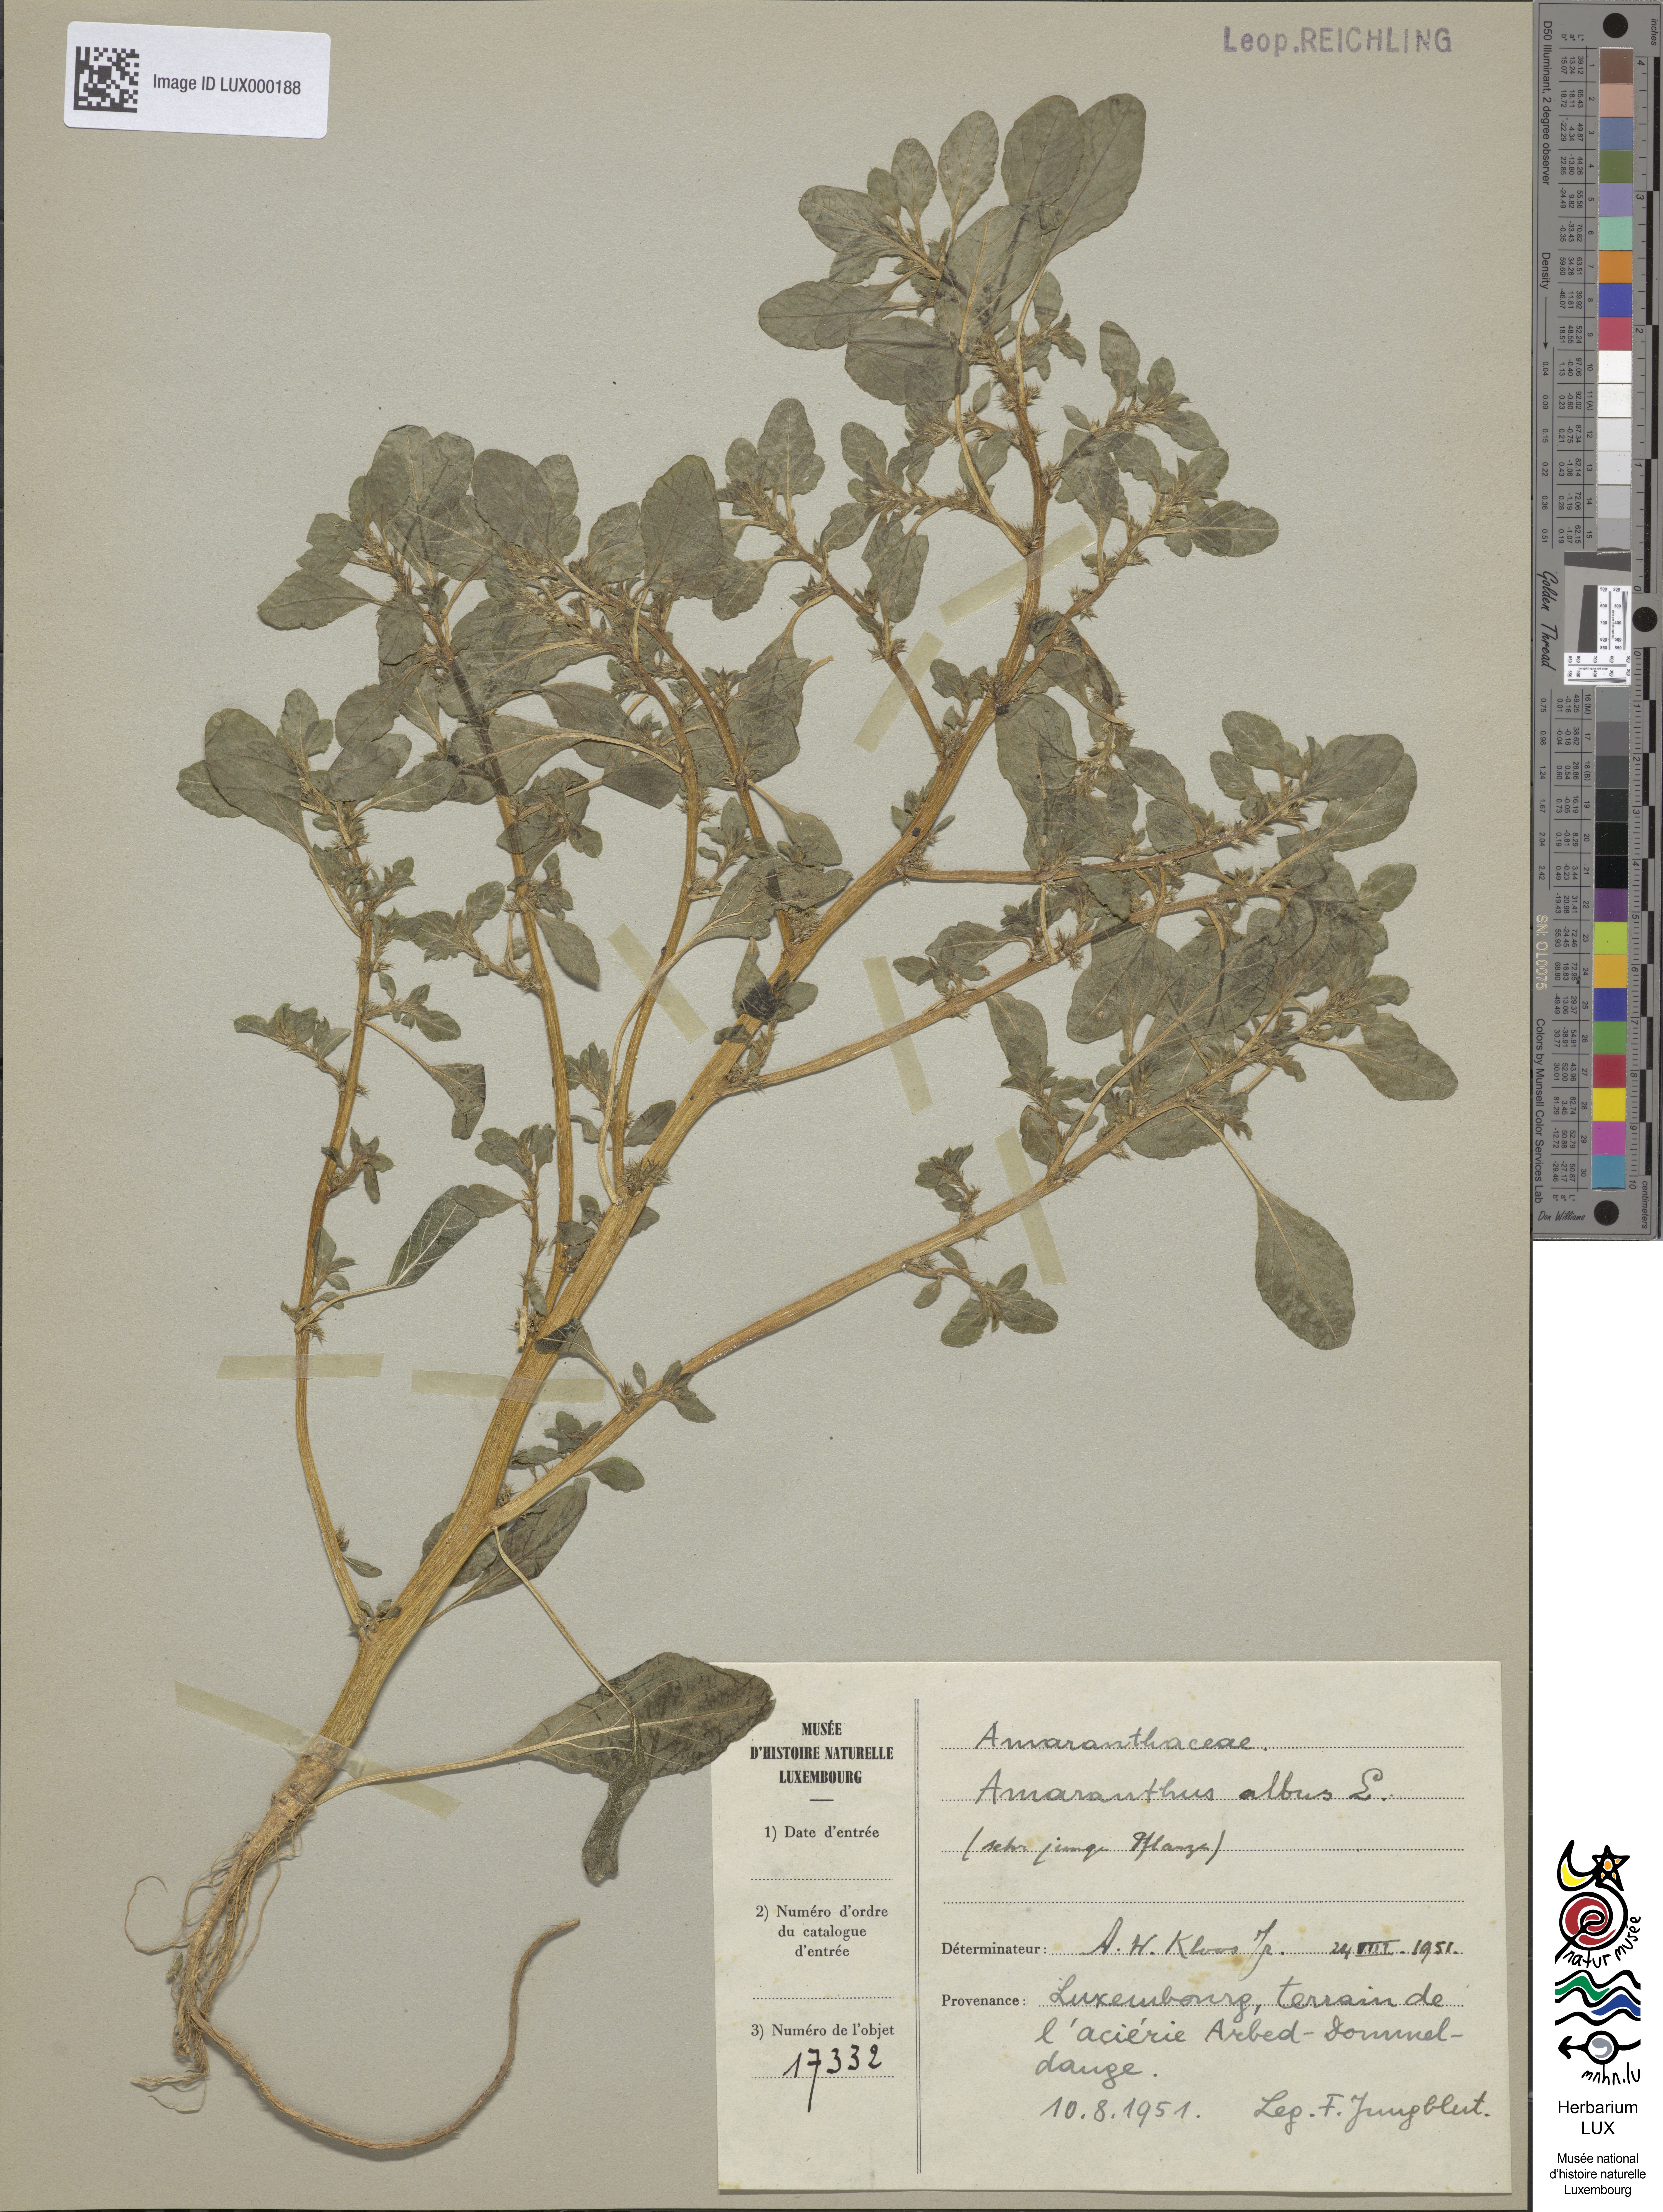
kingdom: Plantae
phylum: Tracheophyta
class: Magnoliopsida
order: Caryophyllales
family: Amaranthaceae
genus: Amaranthus
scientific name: Amaranthus albus
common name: White pigweed
